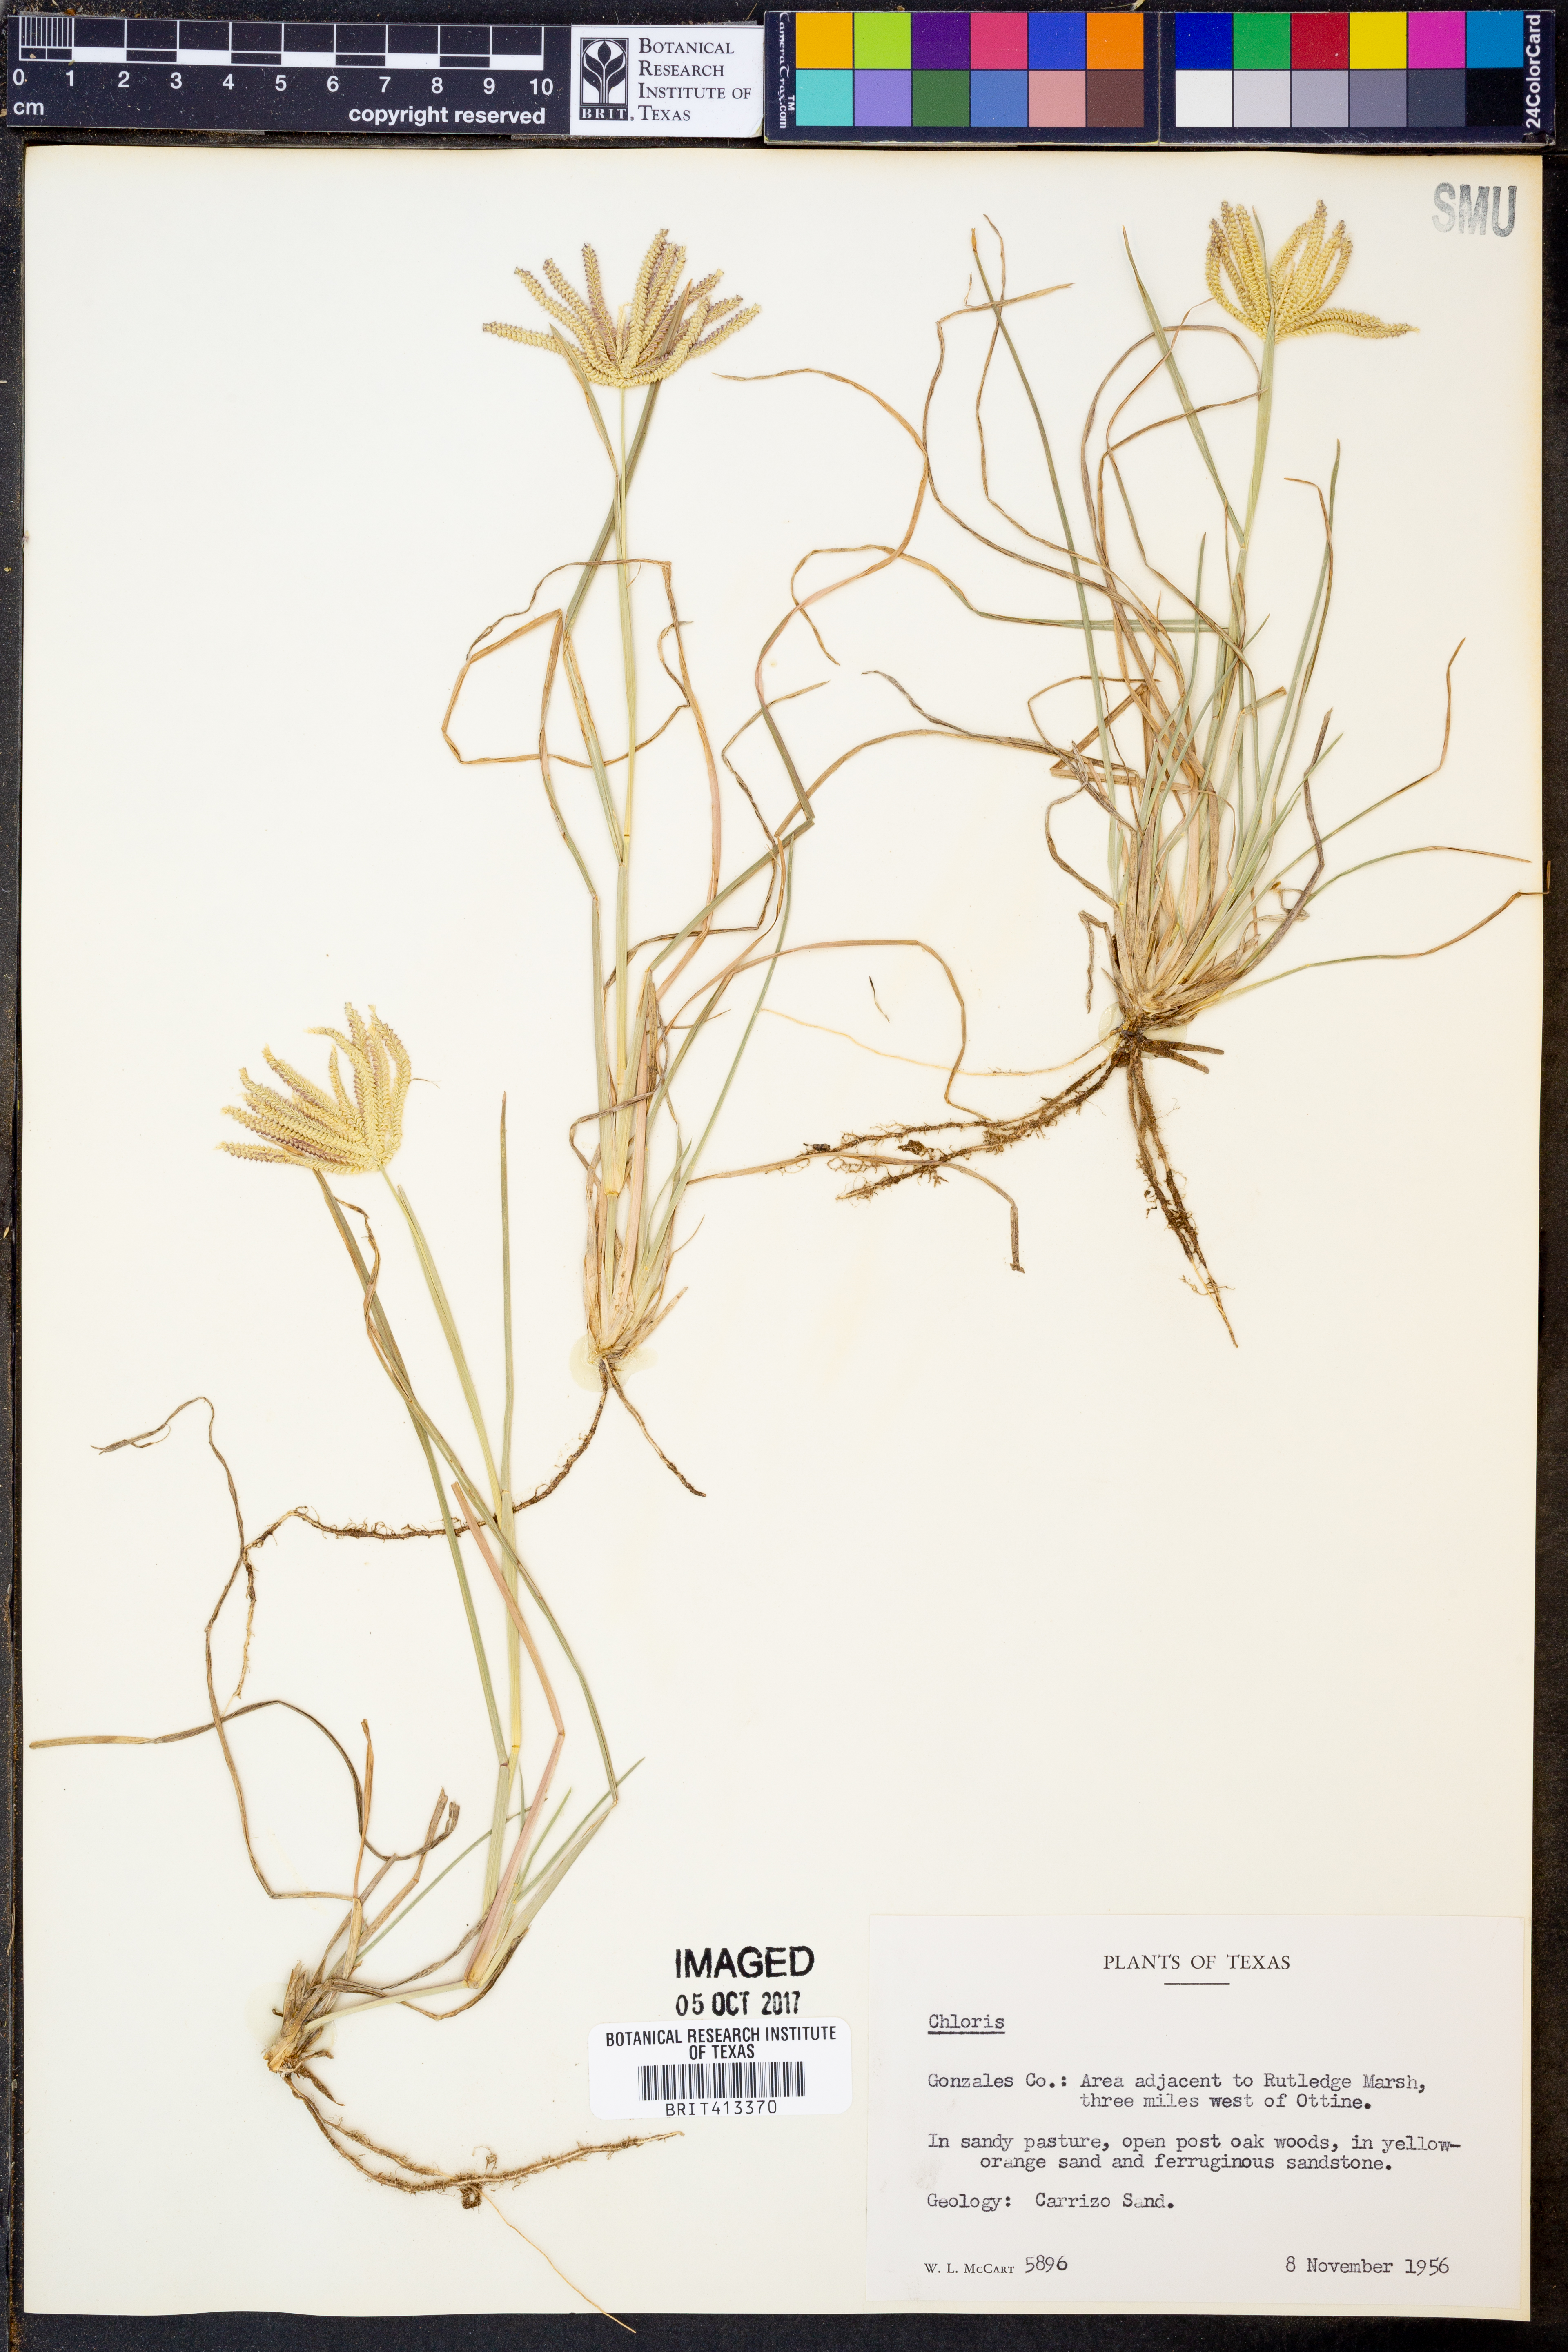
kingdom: Plantae
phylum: Tracheophyta
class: Liliopsida
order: Poales
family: Poaceae
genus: Chloris
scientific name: Chloris
